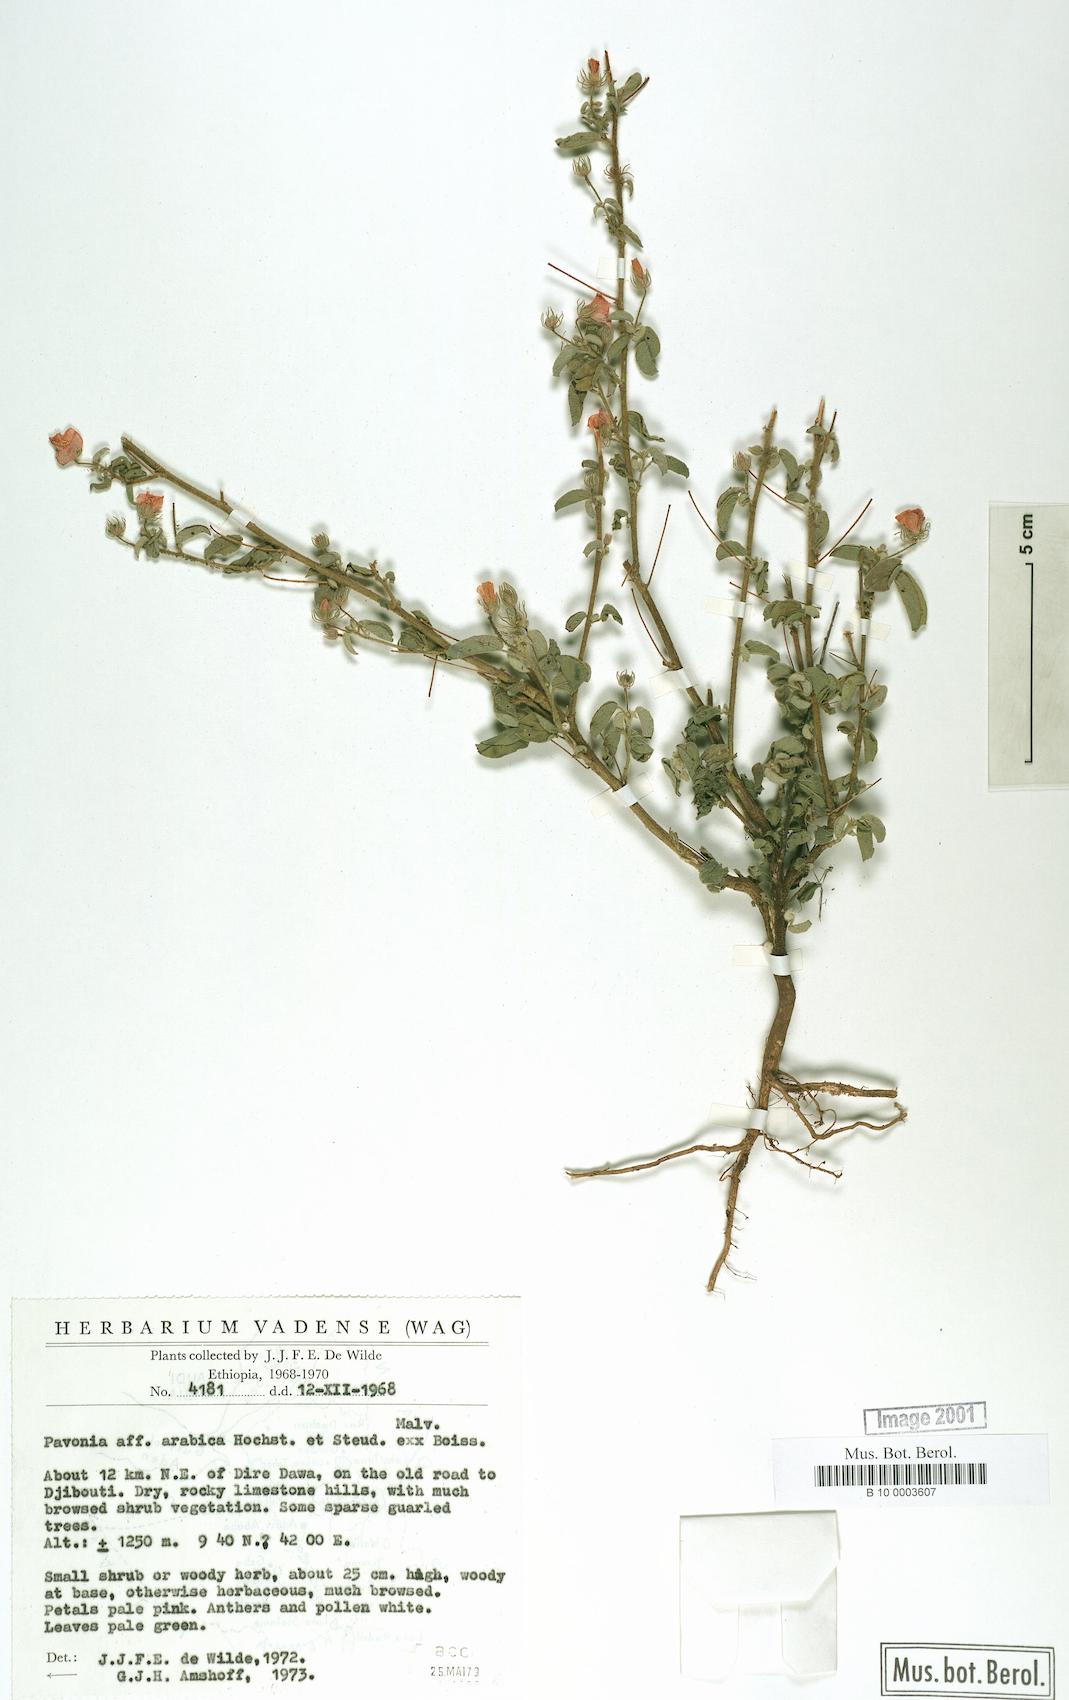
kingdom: Plantae
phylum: Tracheophyta
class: Magnoliopsida
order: Malvales
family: Malvaceae
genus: Pavonia
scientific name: Pavonia arabica
